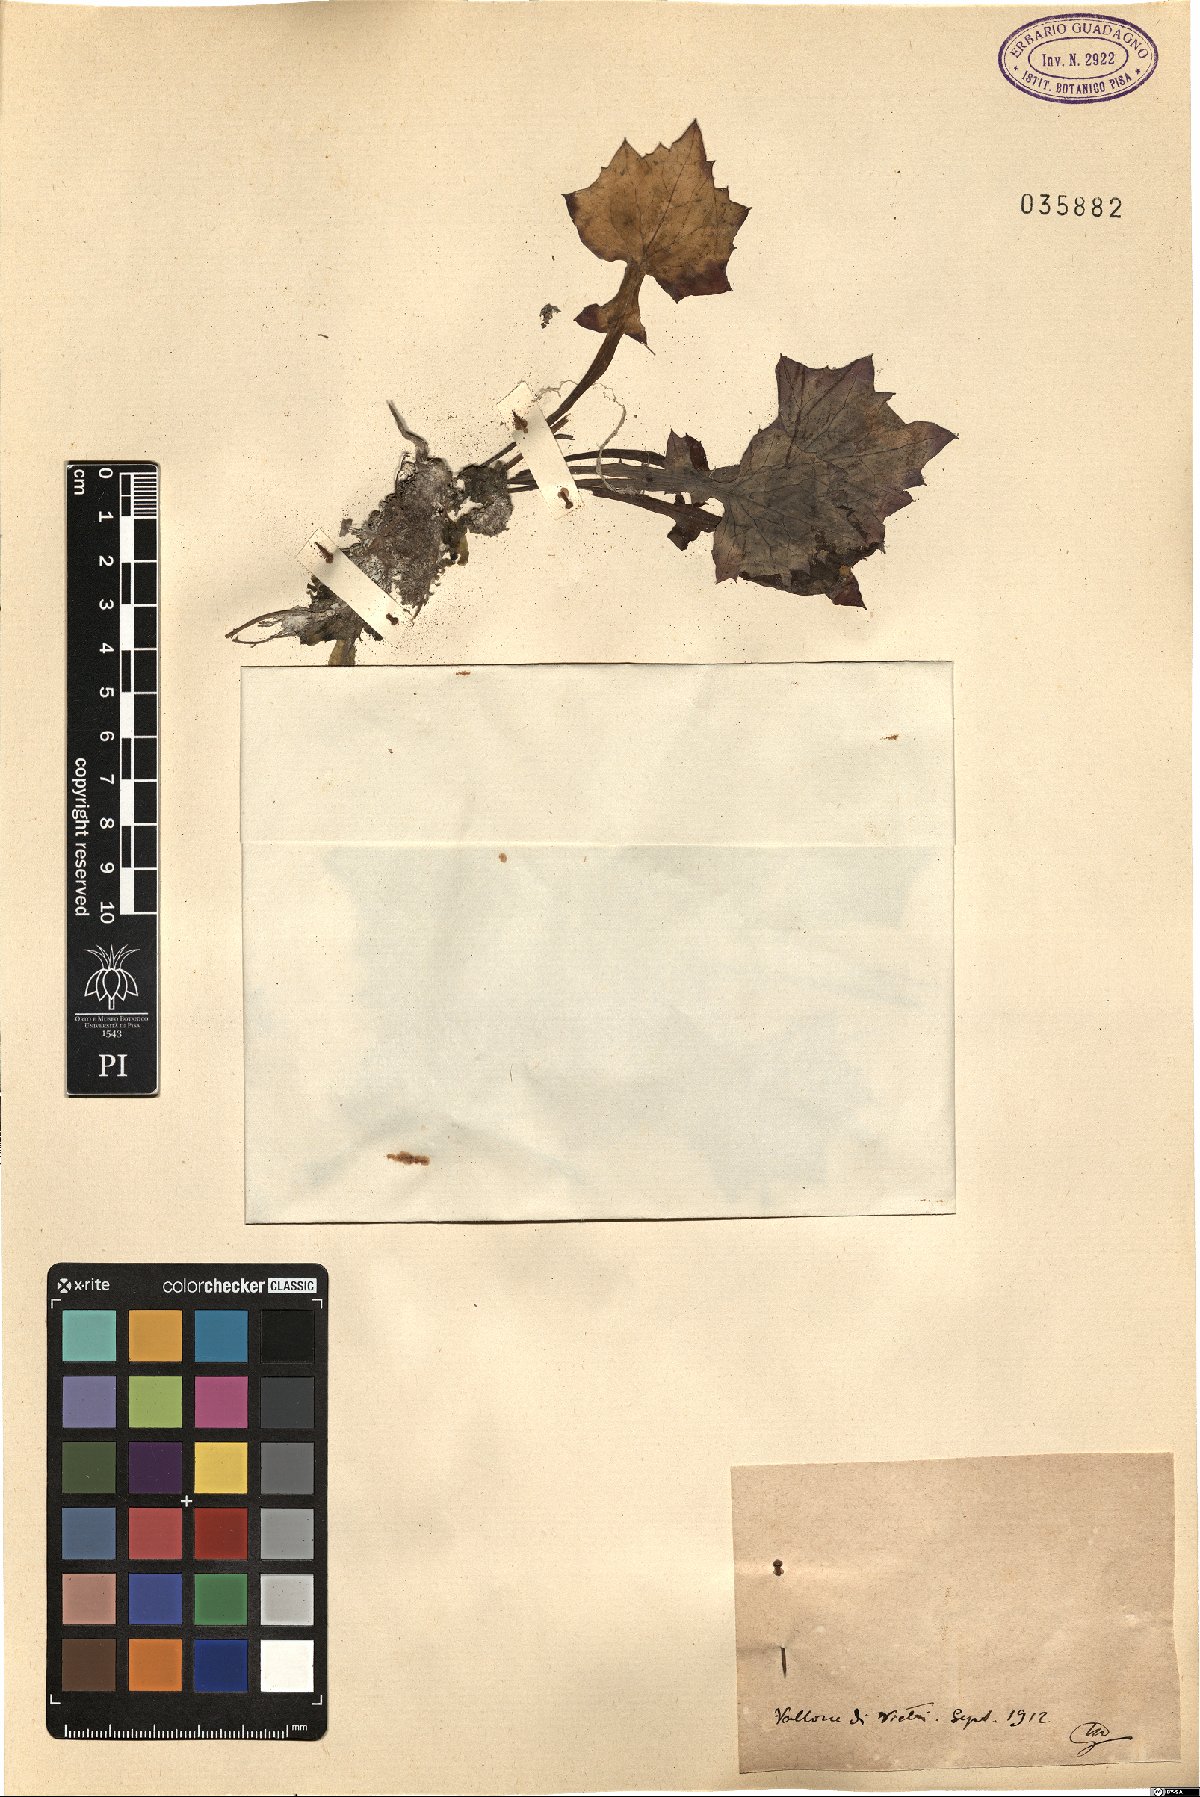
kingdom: Plantae
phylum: Tracheophyta
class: Magnoliopsida
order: Asterales
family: Asteraceae
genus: Lactuca
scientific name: Lactuca
